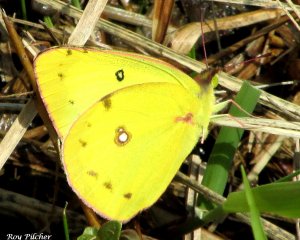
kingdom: Animalia
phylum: Arthropoda
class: Insecta
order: Lepidoptera
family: Pieridae
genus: Colias
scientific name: Colias eurytheme
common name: Orange Sulphur
